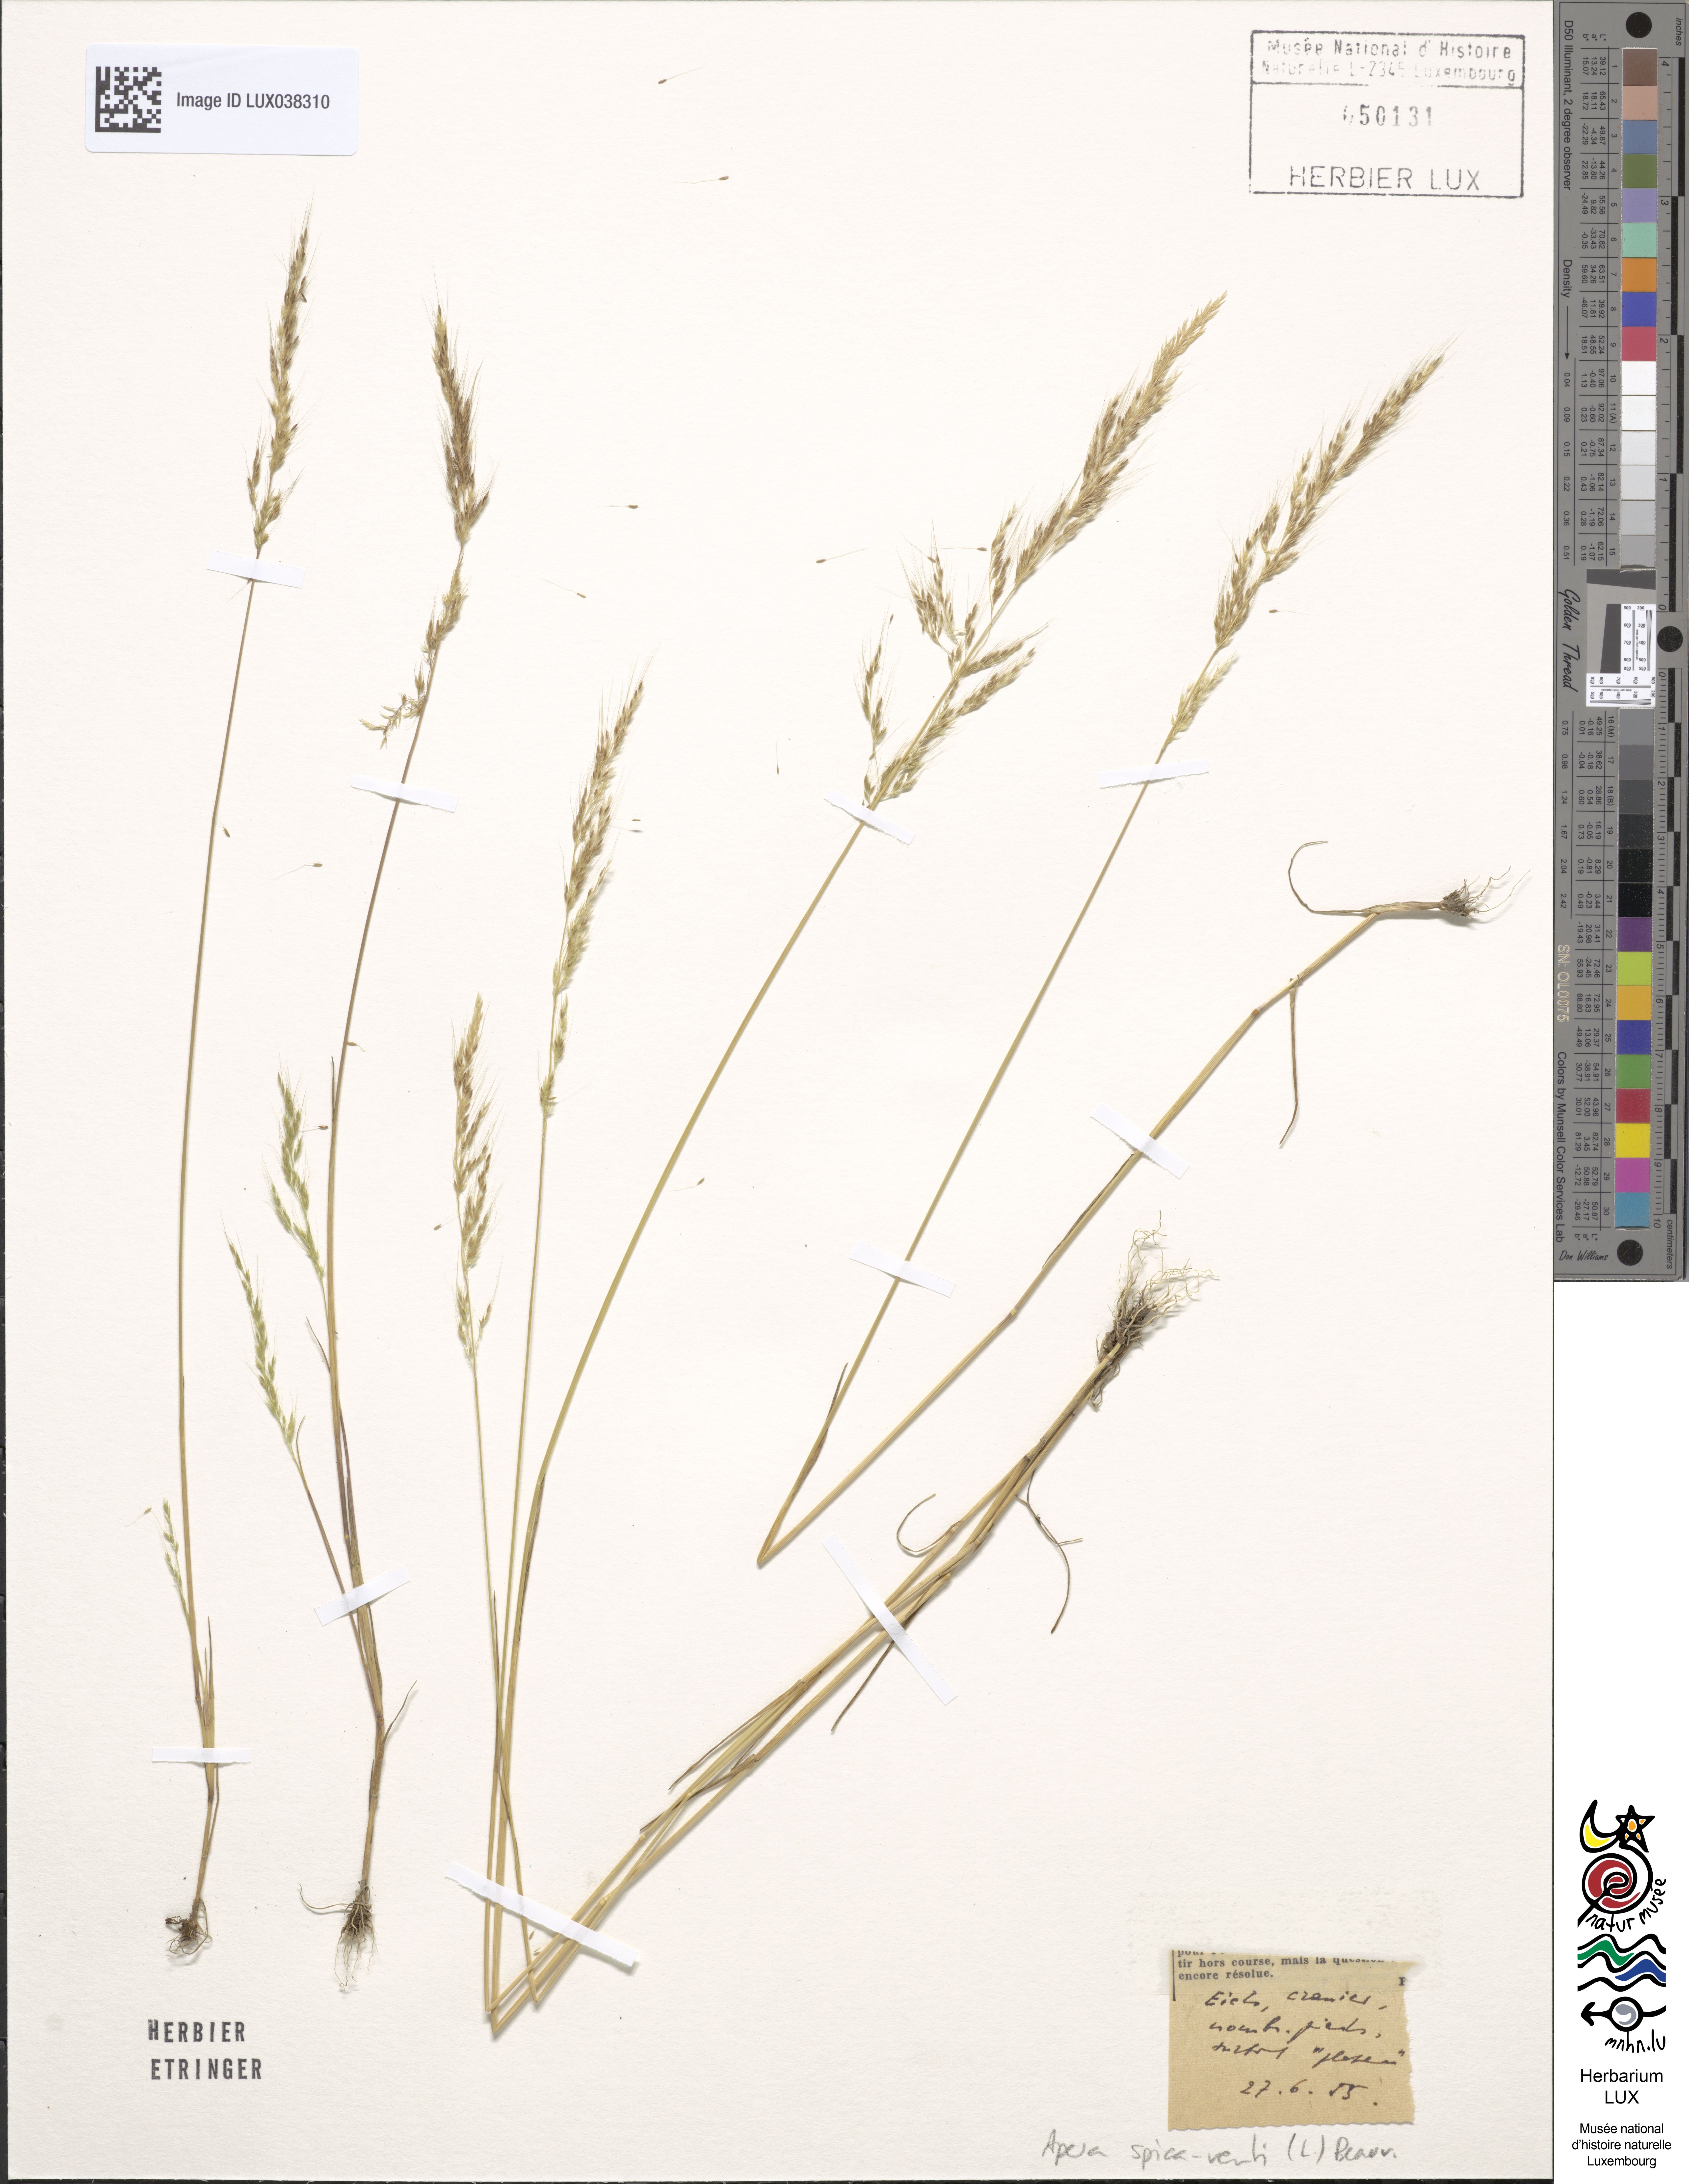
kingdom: Plantae
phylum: Tracheophyta
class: Liliopsida
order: Poales
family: Poaceae
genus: Apera
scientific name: Apera spica-venti
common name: Loose silky-bent
